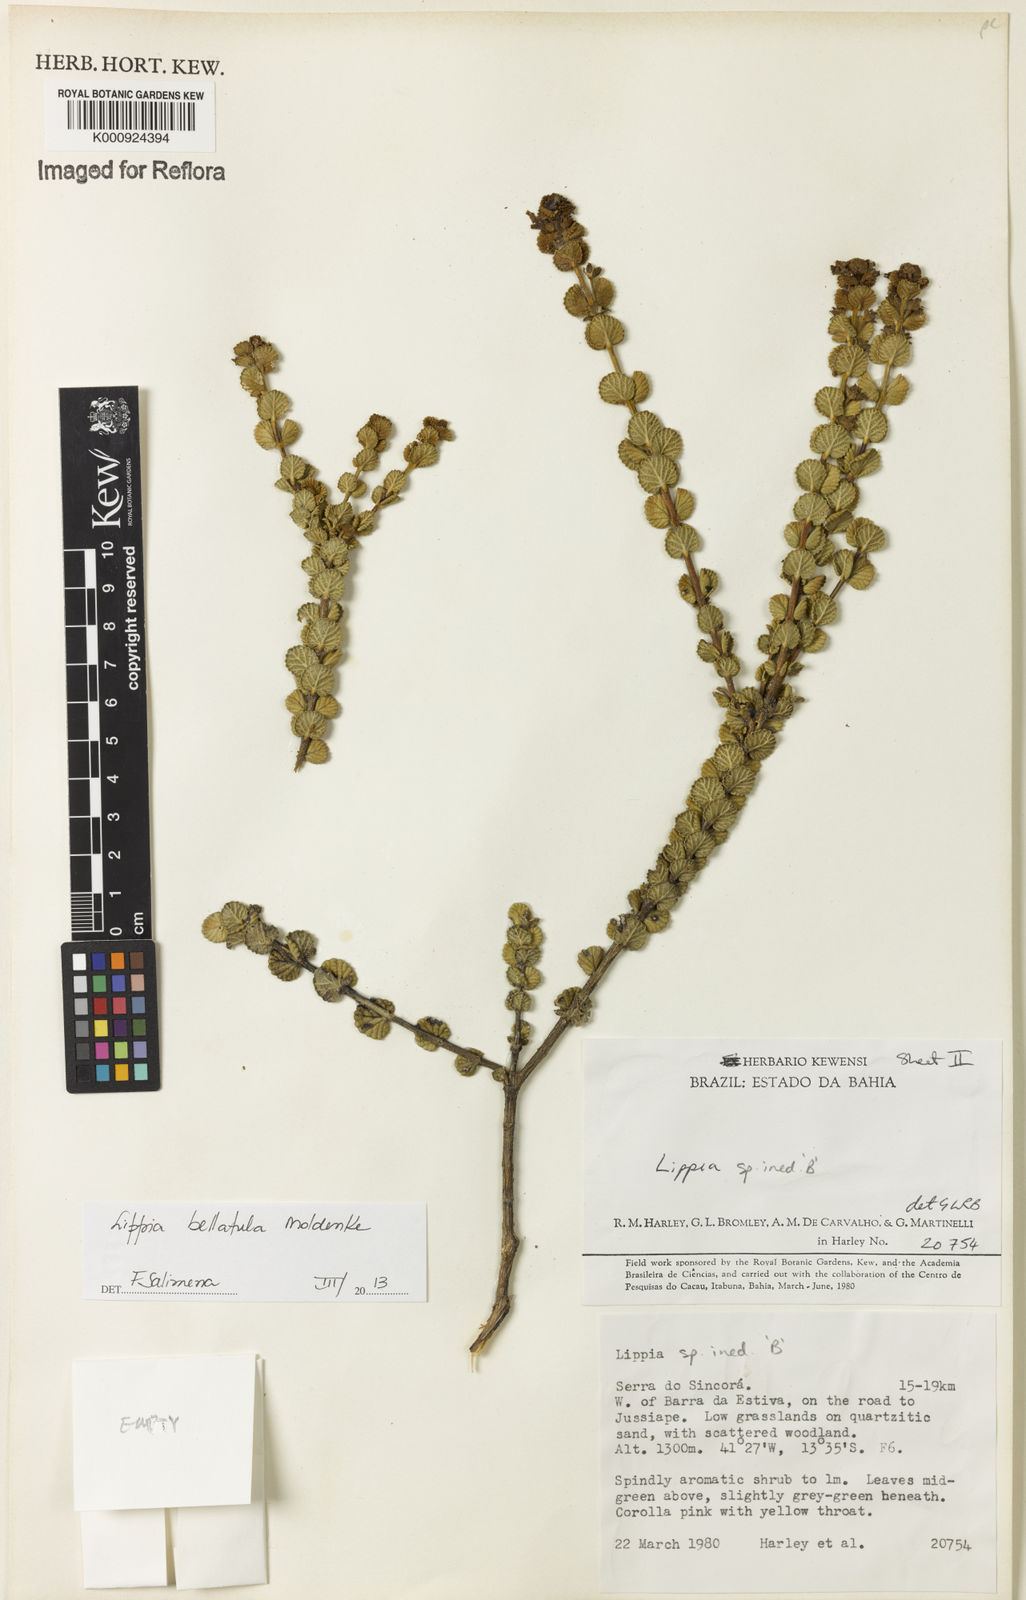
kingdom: Plantae
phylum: Tracheophyta
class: Magnoliopsida
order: Lamiales
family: Verbenaceae
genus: Lippia
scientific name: Lippia bellatula
